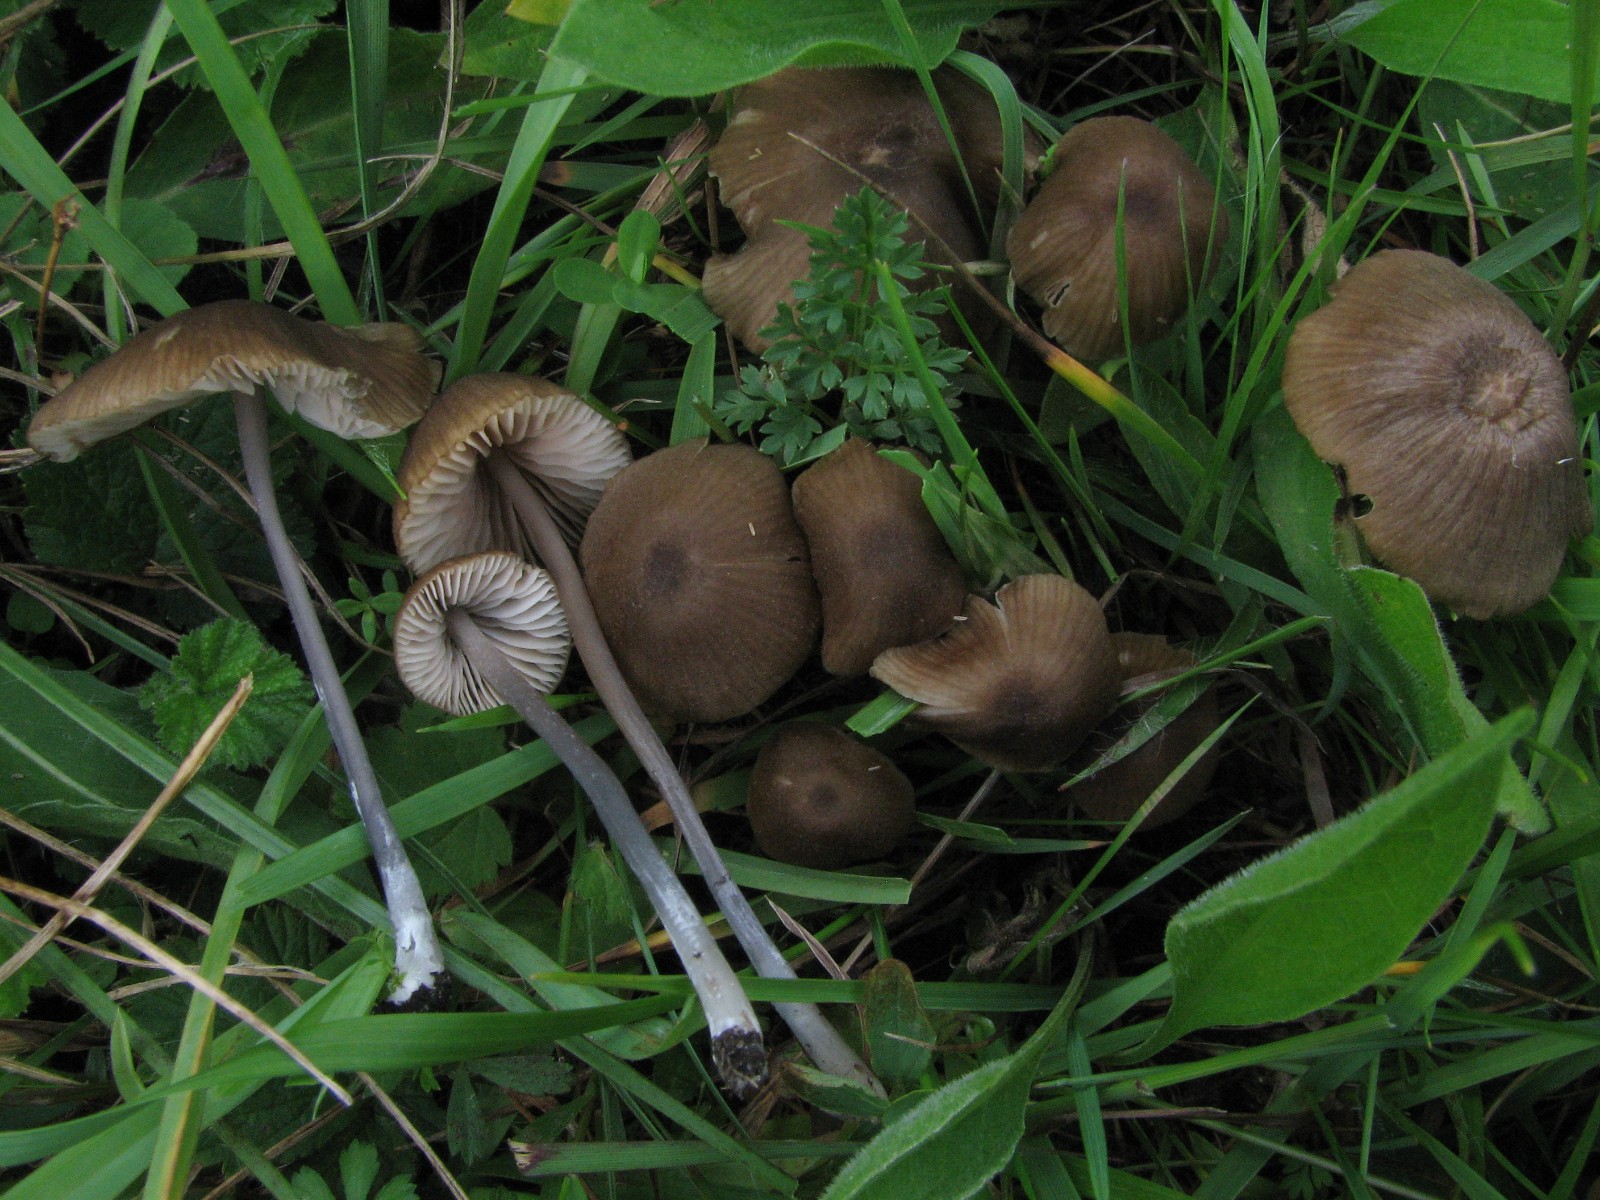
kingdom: Fungi
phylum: Basidiomycota
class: Agaricomycetes
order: Agaricales
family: Entolomataceae
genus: Entoloma
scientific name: Entoloma glaucobasis
